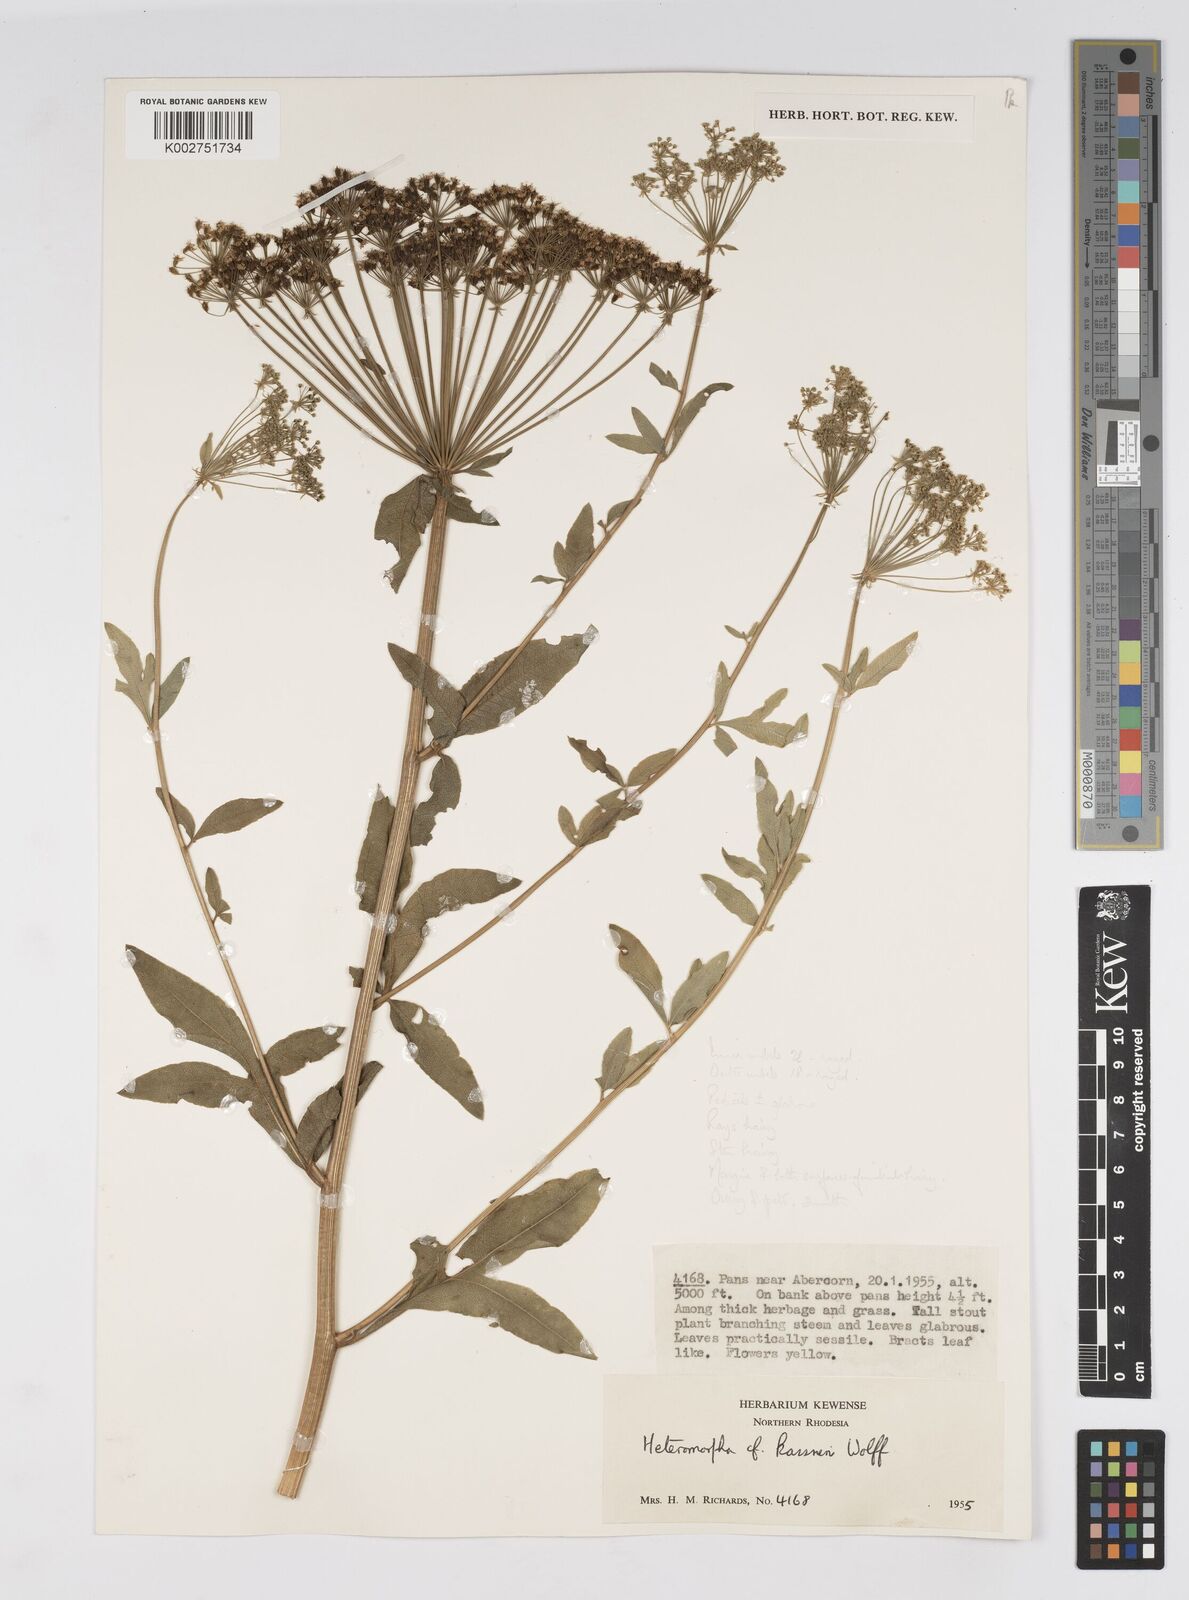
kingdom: Plantae
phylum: Tracheophyta
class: Magnoliopsida
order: Apiales
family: Apiaceae
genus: Heteromorpha
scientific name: Heteromorpha involucrata
